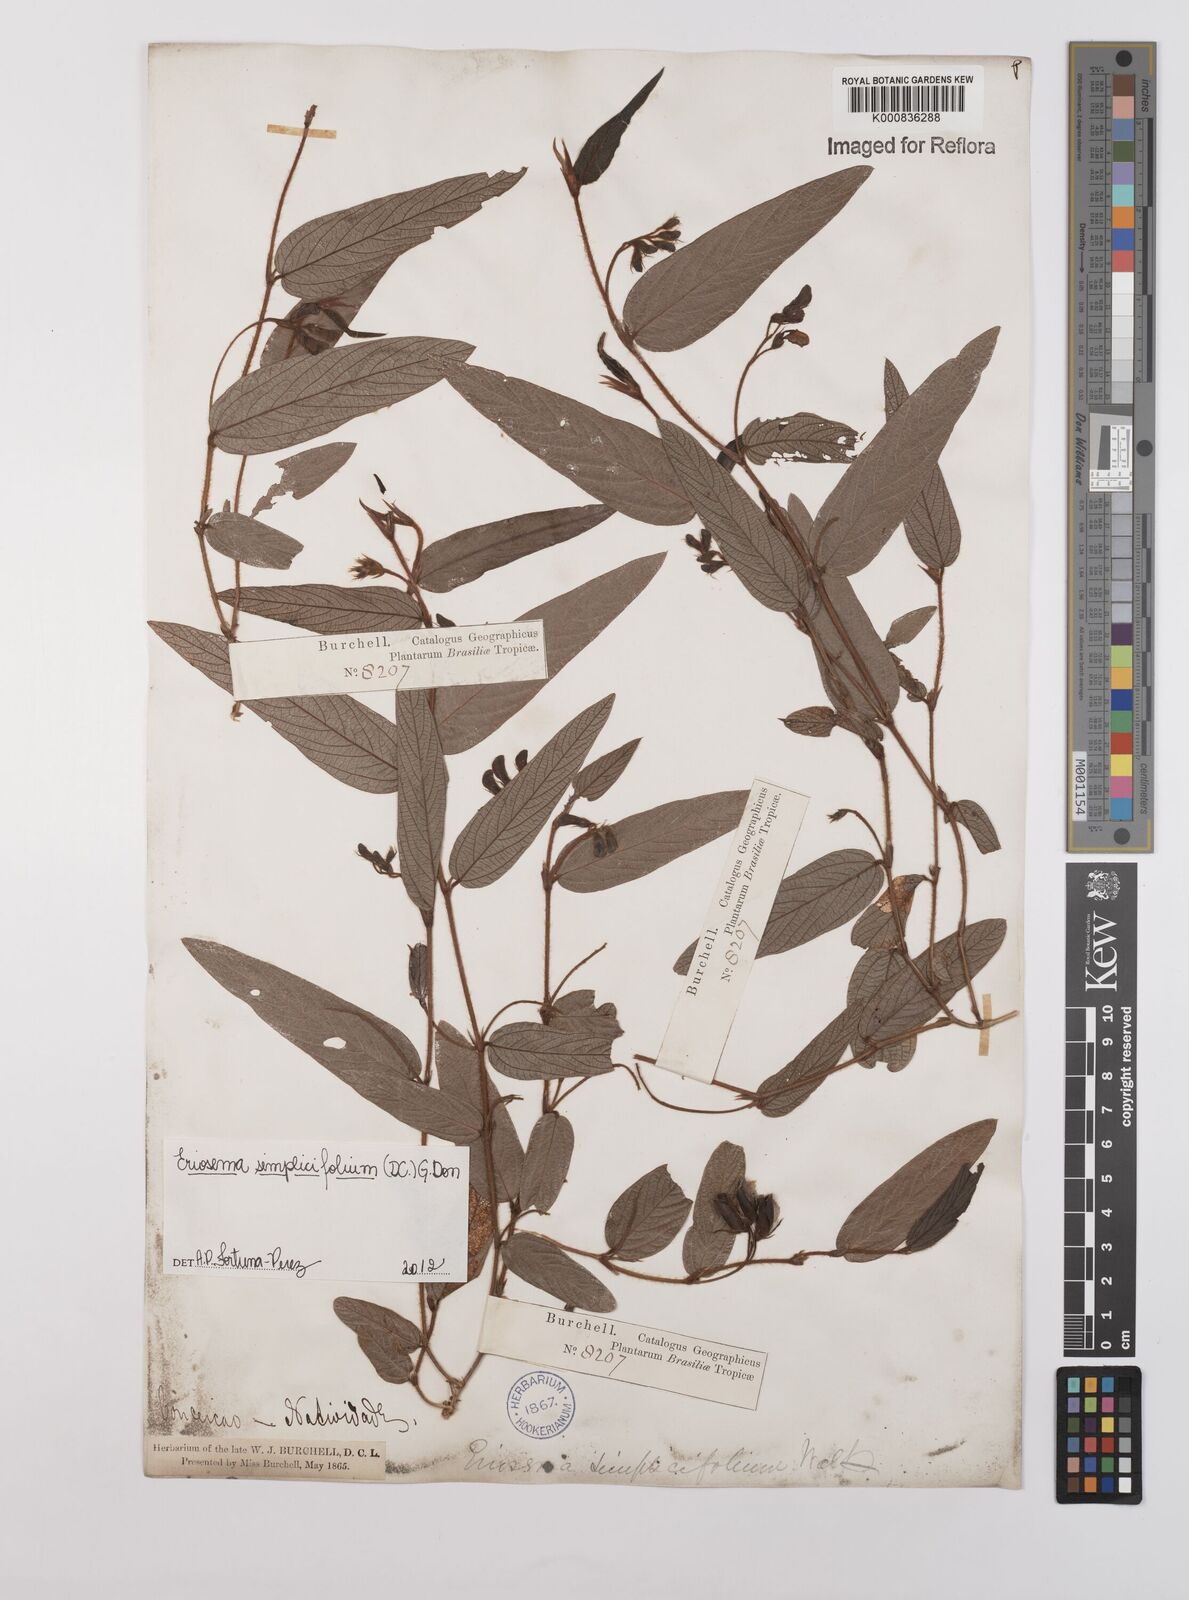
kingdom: Plantae
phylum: Tracheophyta
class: Magnoliopsida
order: Fabales
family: Fabaceae
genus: Eriosema
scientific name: Eriosema simplicifolium
